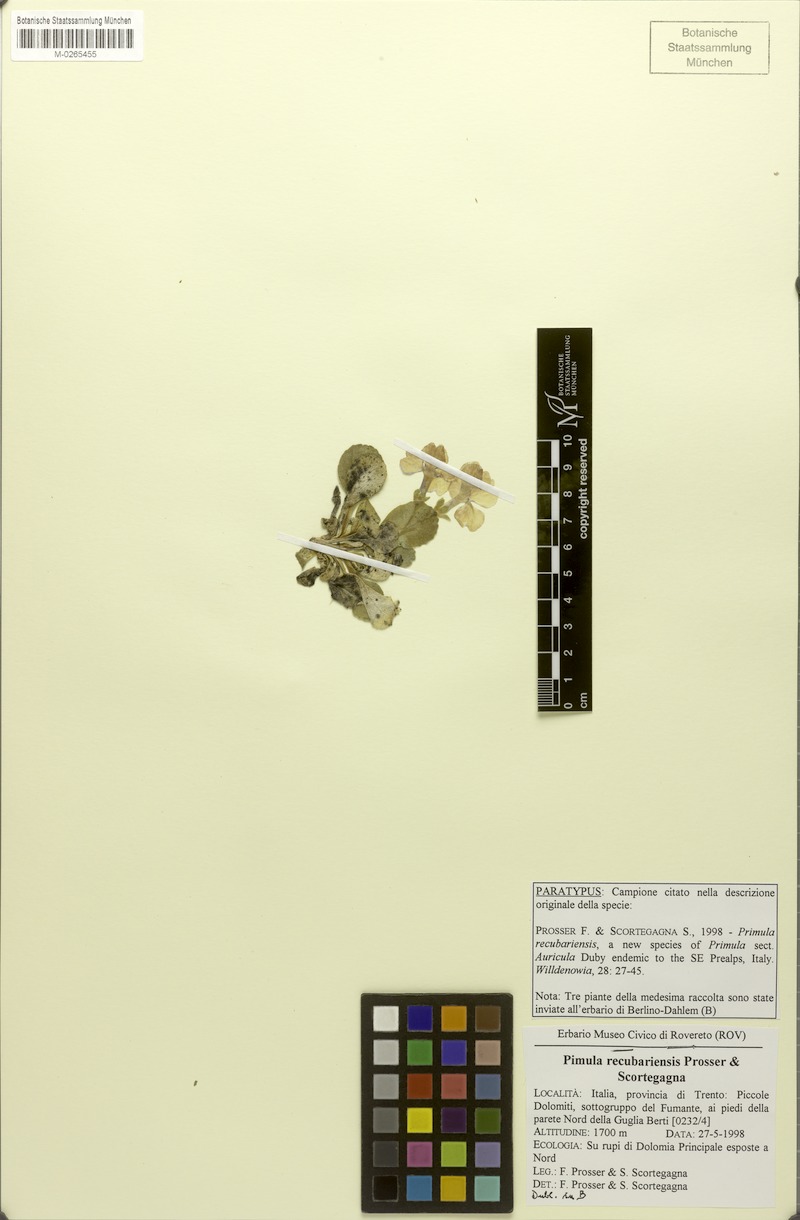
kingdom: Plantae
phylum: Tracheophyta
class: Magnoliopsida
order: Ericales
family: Primulaceae
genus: Primula
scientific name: Primula recubariensis
